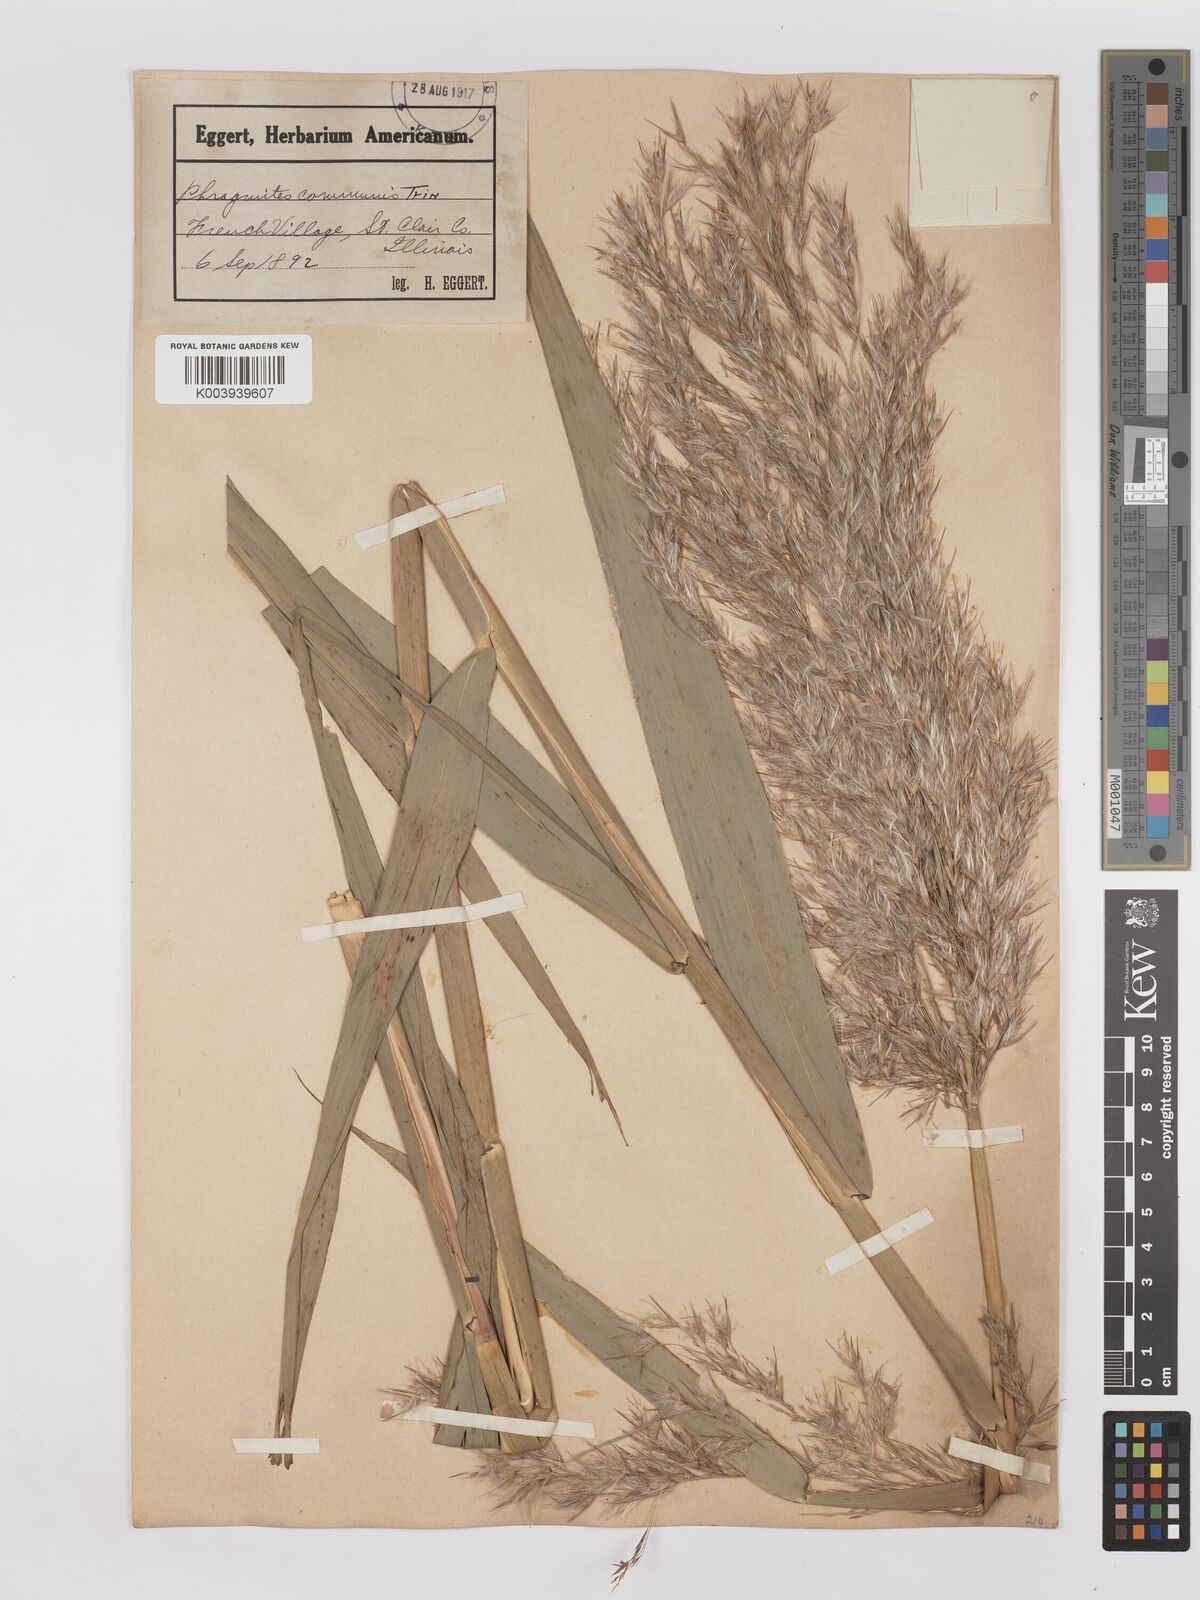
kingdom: Plantae
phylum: Tracheophyta
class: Liliopsida
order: Poales
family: Poaceae
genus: Phragmites
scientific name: Phragmites australis
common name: Common reed
